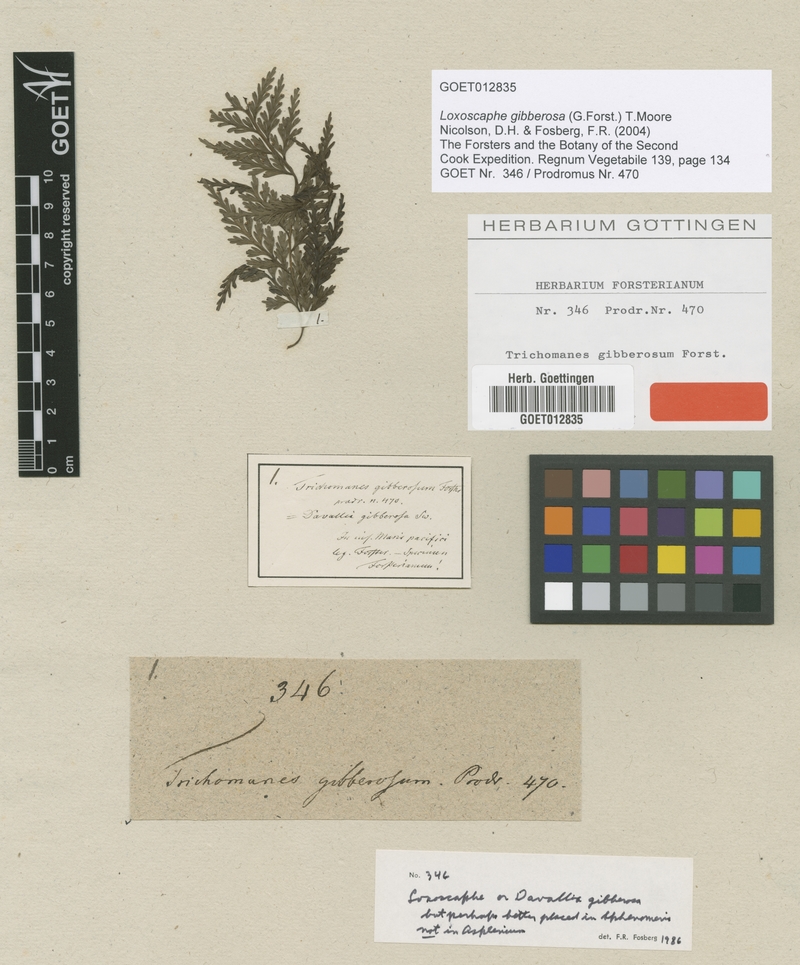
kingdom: Plantae
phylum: Tracheophyta
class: Polypodiopsida
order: Polypodiales
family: Aspleniaceae
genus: Asplenium
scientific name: Asplenium gibberosum
